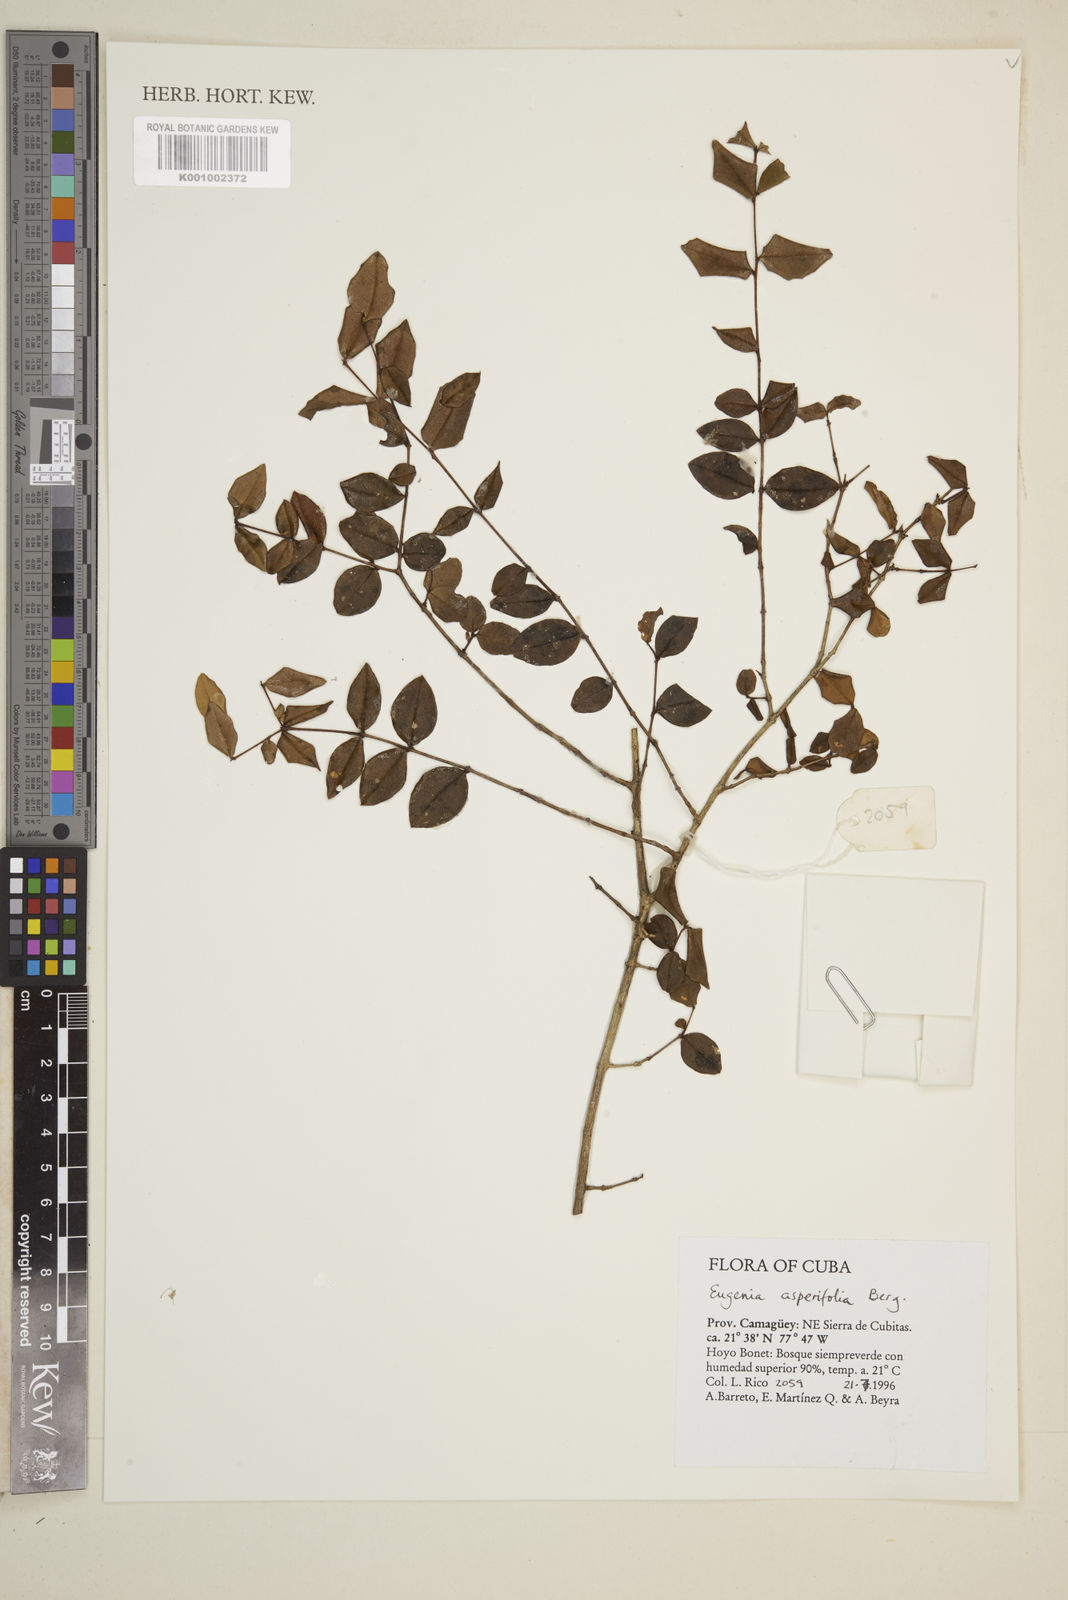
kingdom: Plantae
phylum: Tracheophyta
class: Magnoliopsida
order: Myrtales
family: Myrtaceae
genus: Eugenia
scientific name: Eugenia asperifolia
